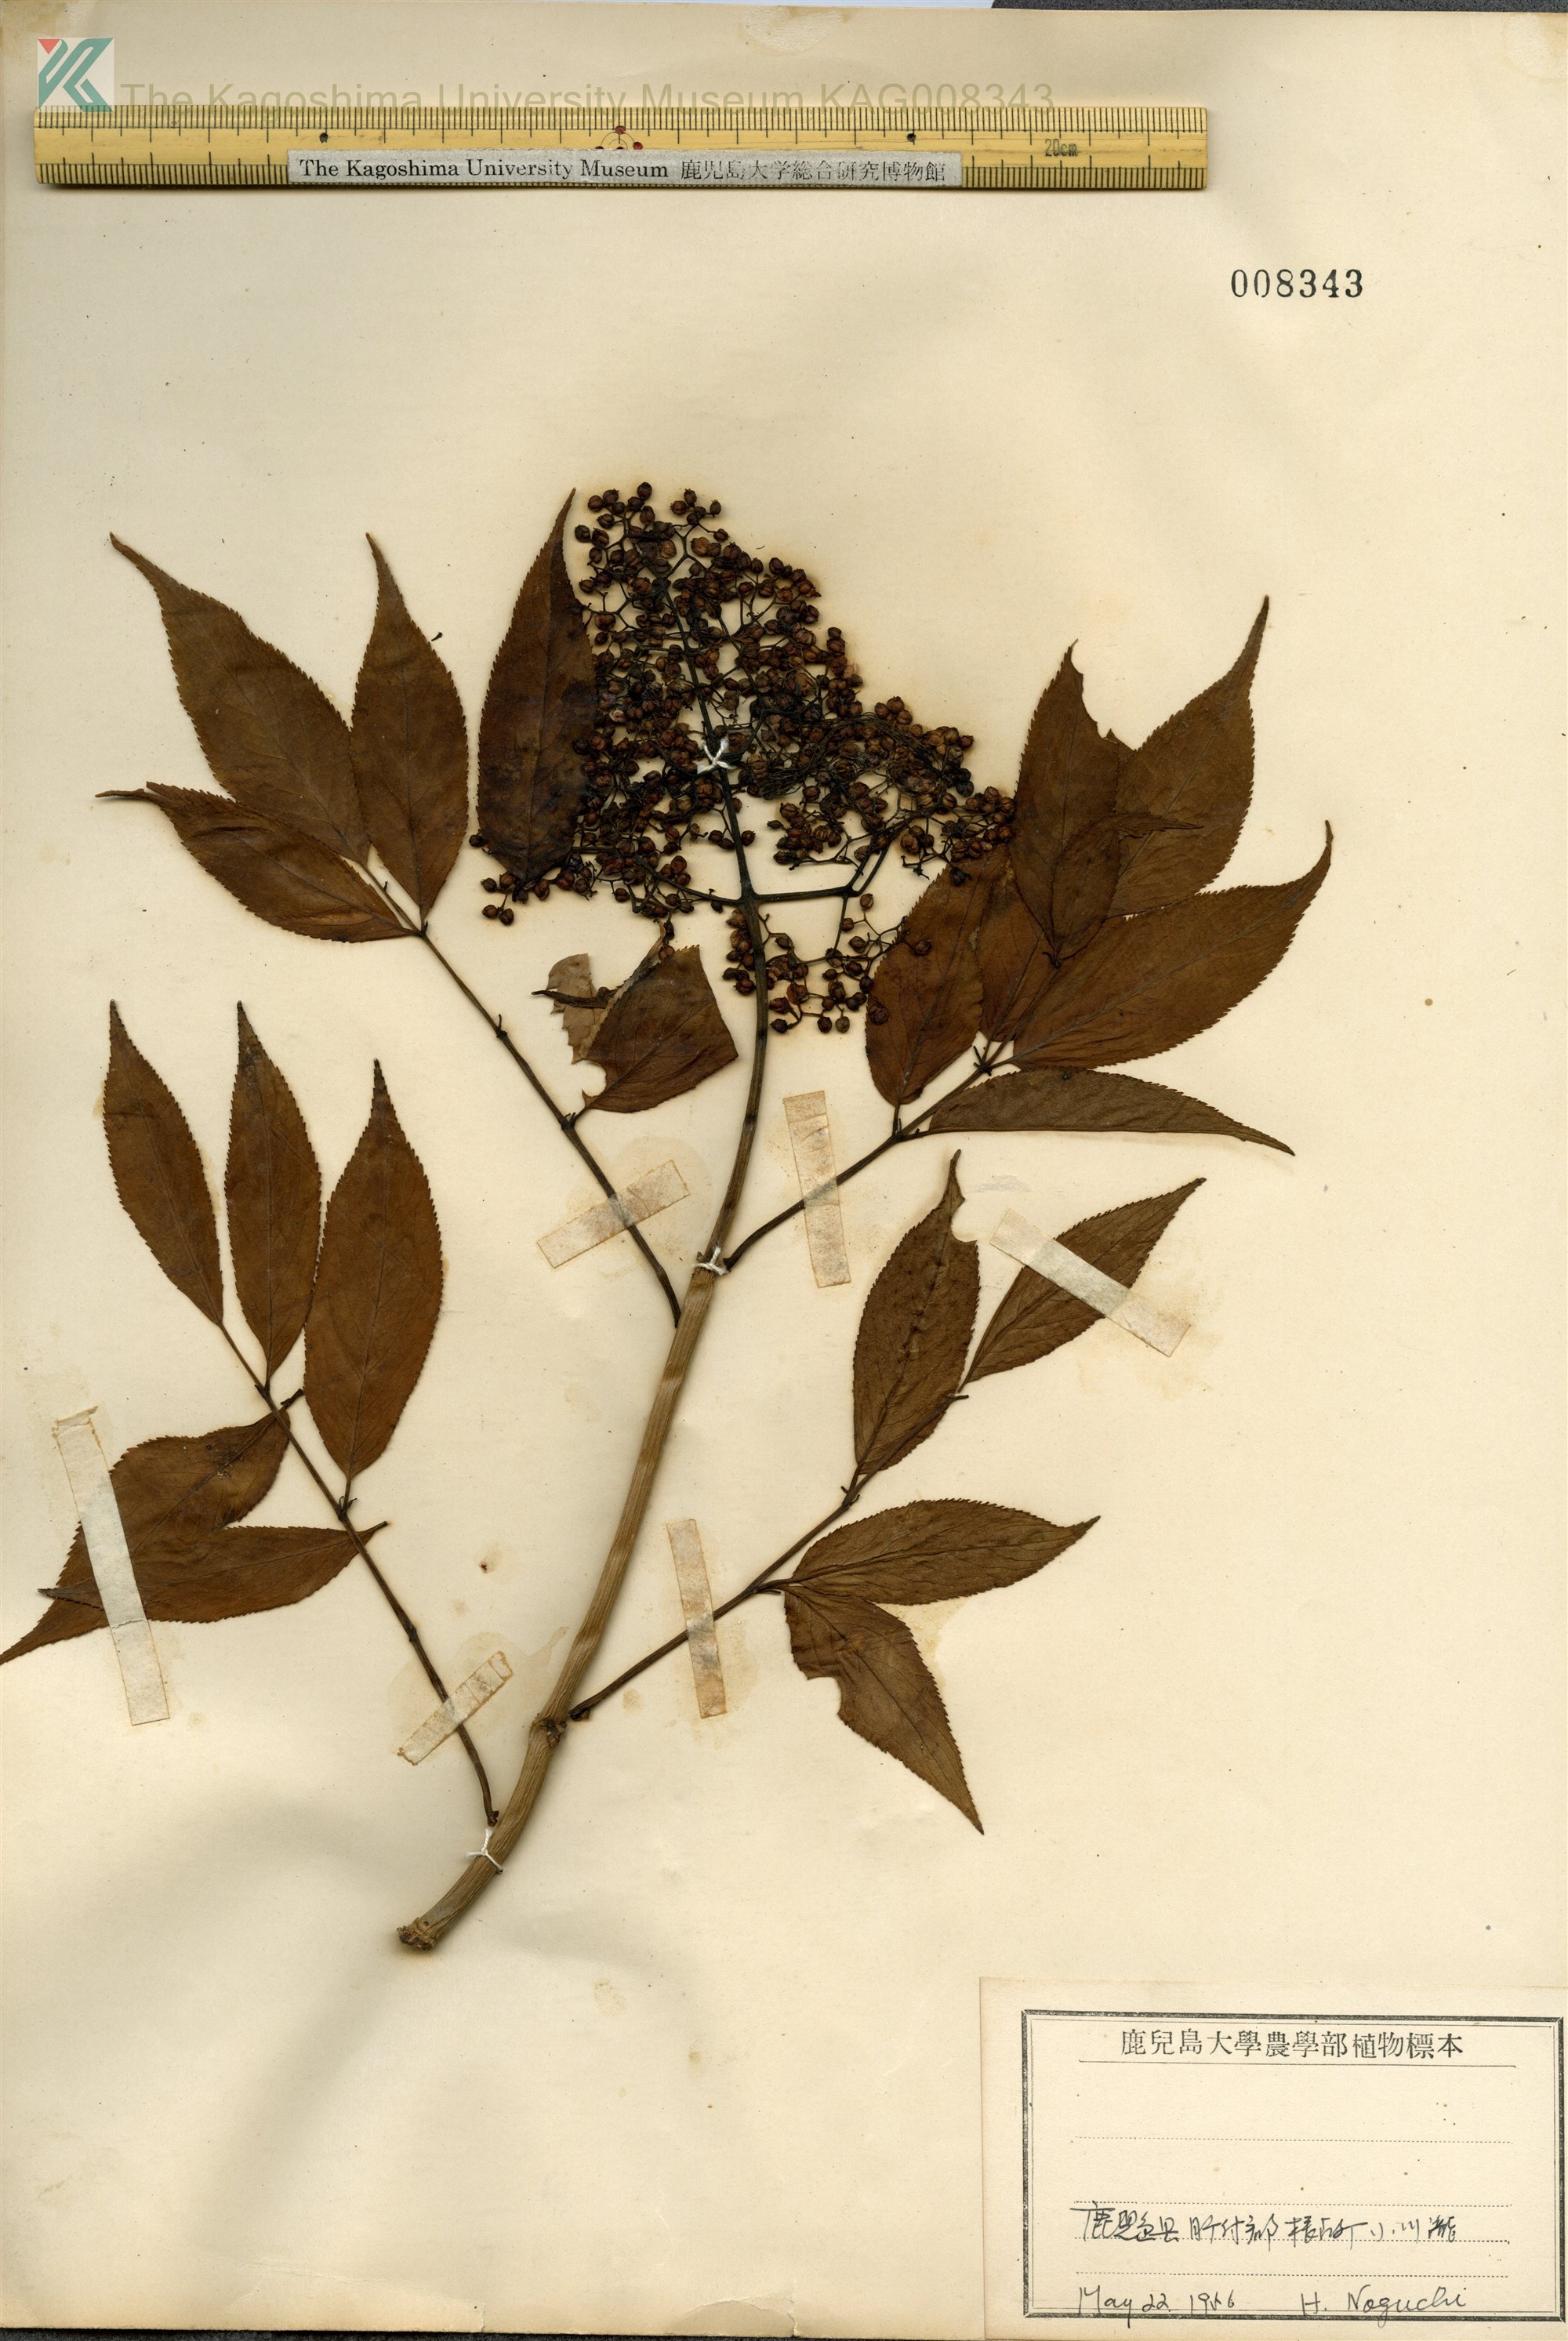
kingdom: Plantae
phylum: Tracheophyta
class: Magnoliopsida
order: Dipsacales
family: Viburnaceae
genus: Sambucus
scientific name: Sambucus sieboldiana
